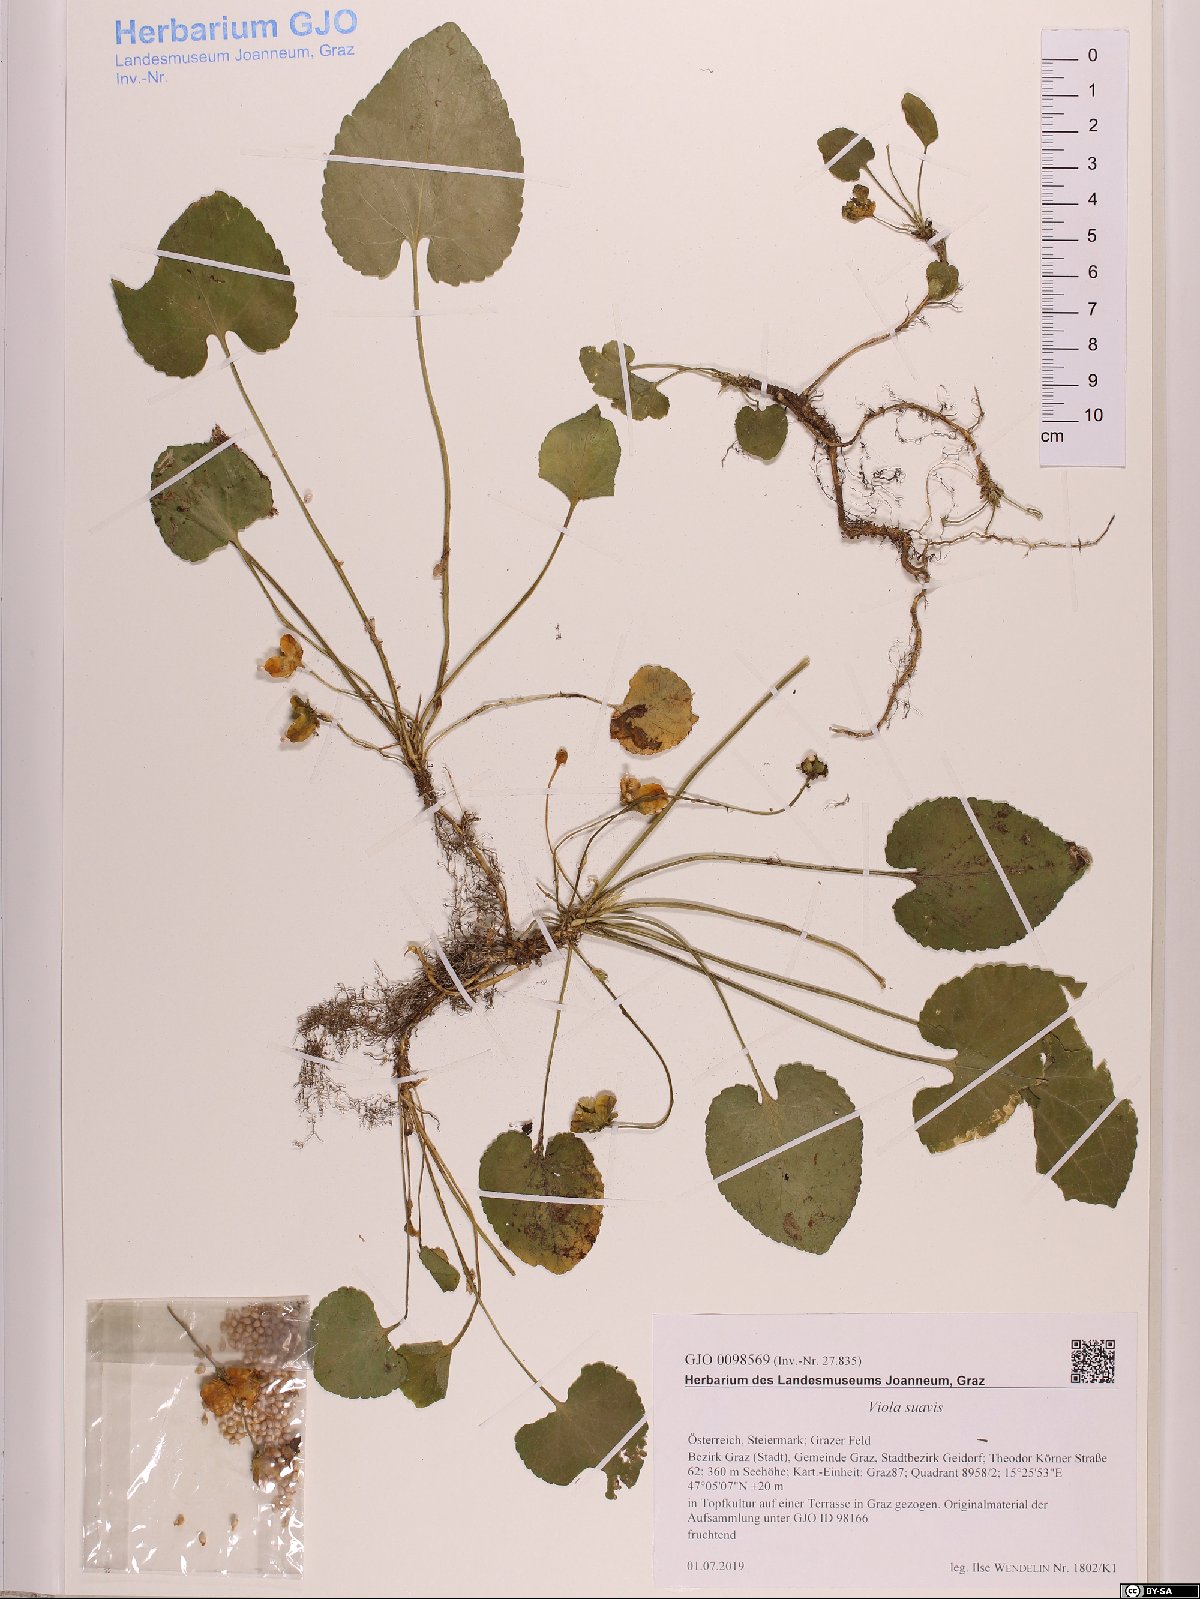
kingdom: Plantae
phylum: Tracheophyta
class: Magnoliopsida
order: Malpighiales
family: Violaceae
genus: Viola
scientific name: Viola suavis
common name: Russian violet
